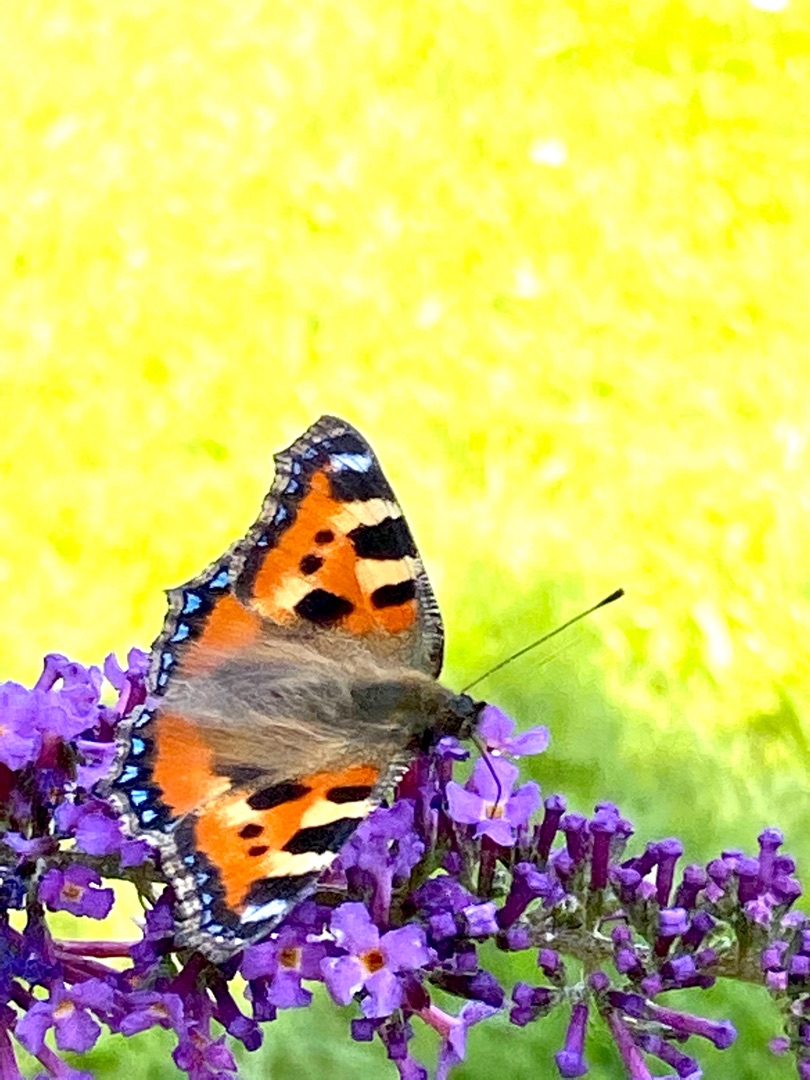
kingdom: Animalia
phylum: Arthropoda
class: Insecta
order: Lepidoptera
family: Nymphalidae
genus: Aglais
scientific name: Aglais urticae
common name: Nældens takvinge
